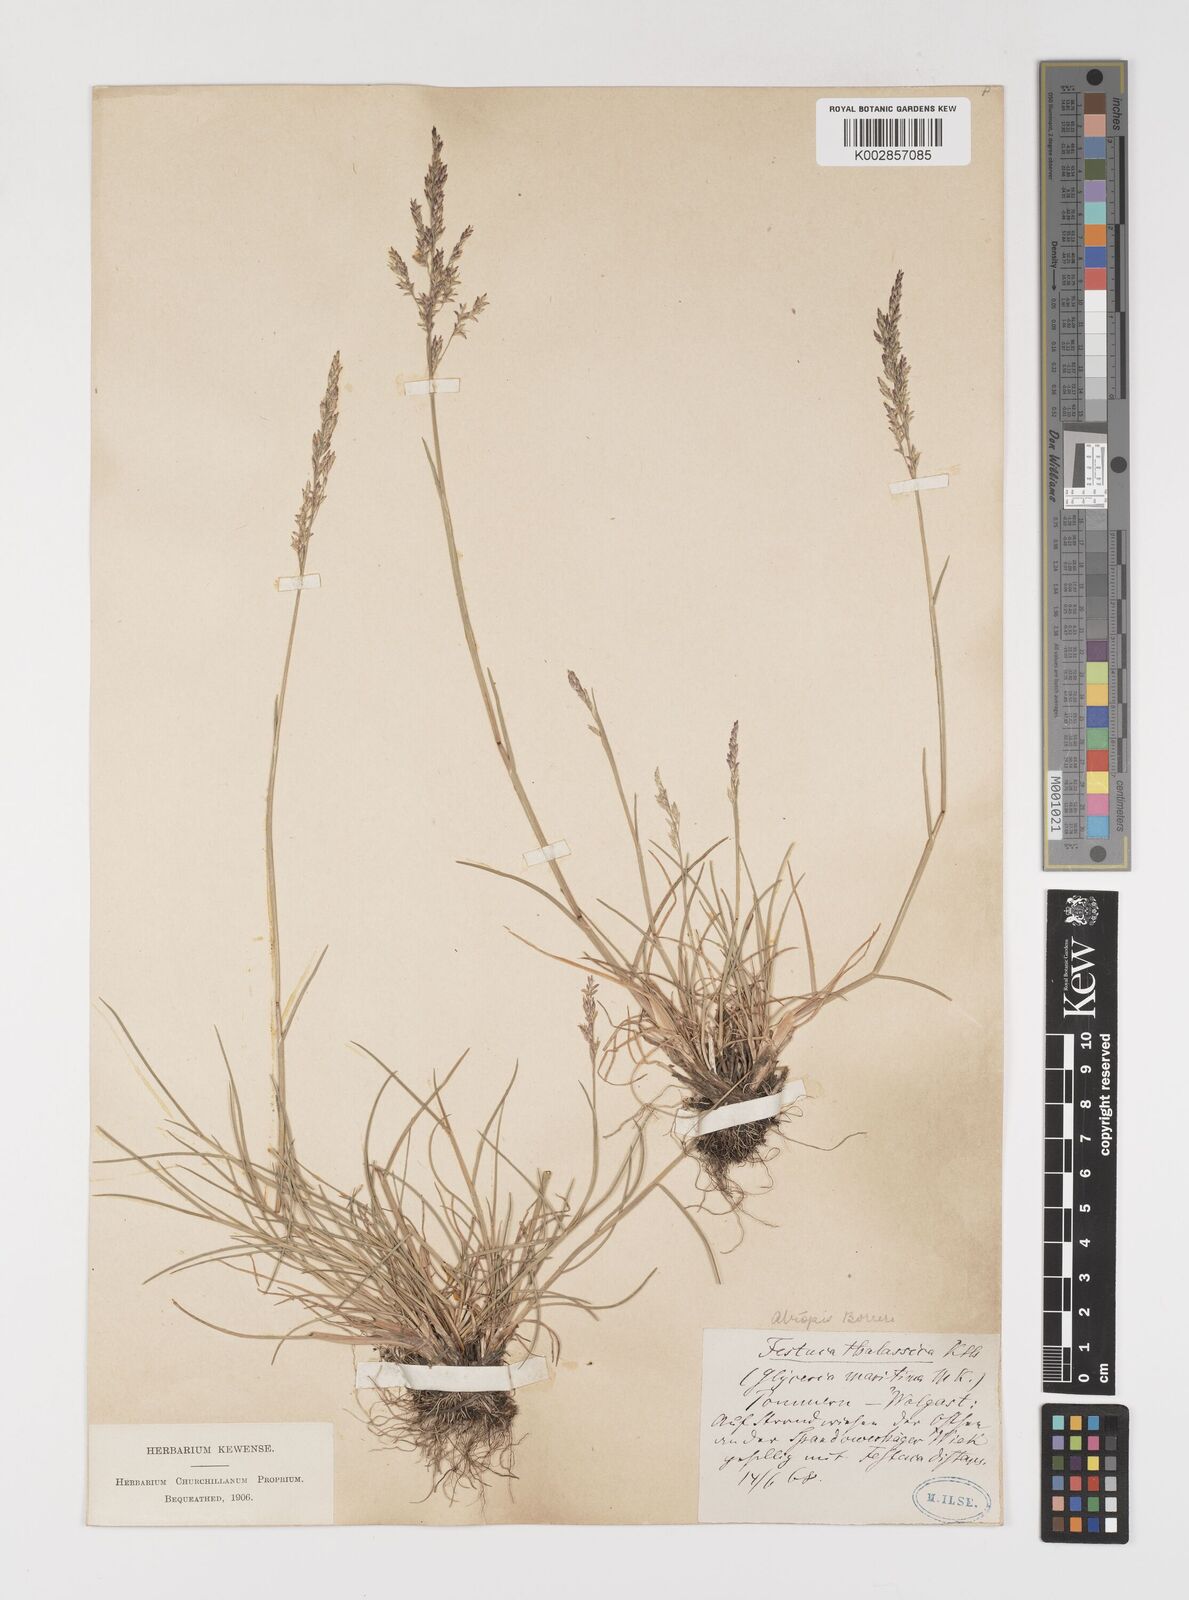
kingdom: Plantae
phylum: Tracheophyta
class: Liliopsida
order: Poales
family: Poaceae
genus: Puccinellia
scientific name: Puccinellia maritima
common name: Common saltmarsh grass
